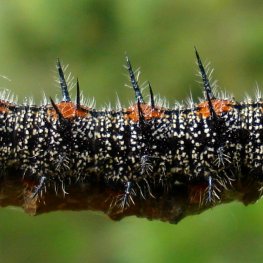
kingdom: Animalia
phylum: Arthropoda
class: Insecta
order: Lepidoptera
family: Nymphalidae
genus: Nymphalis
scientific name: Nymphalis antiopa
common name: Mourning Cloak
